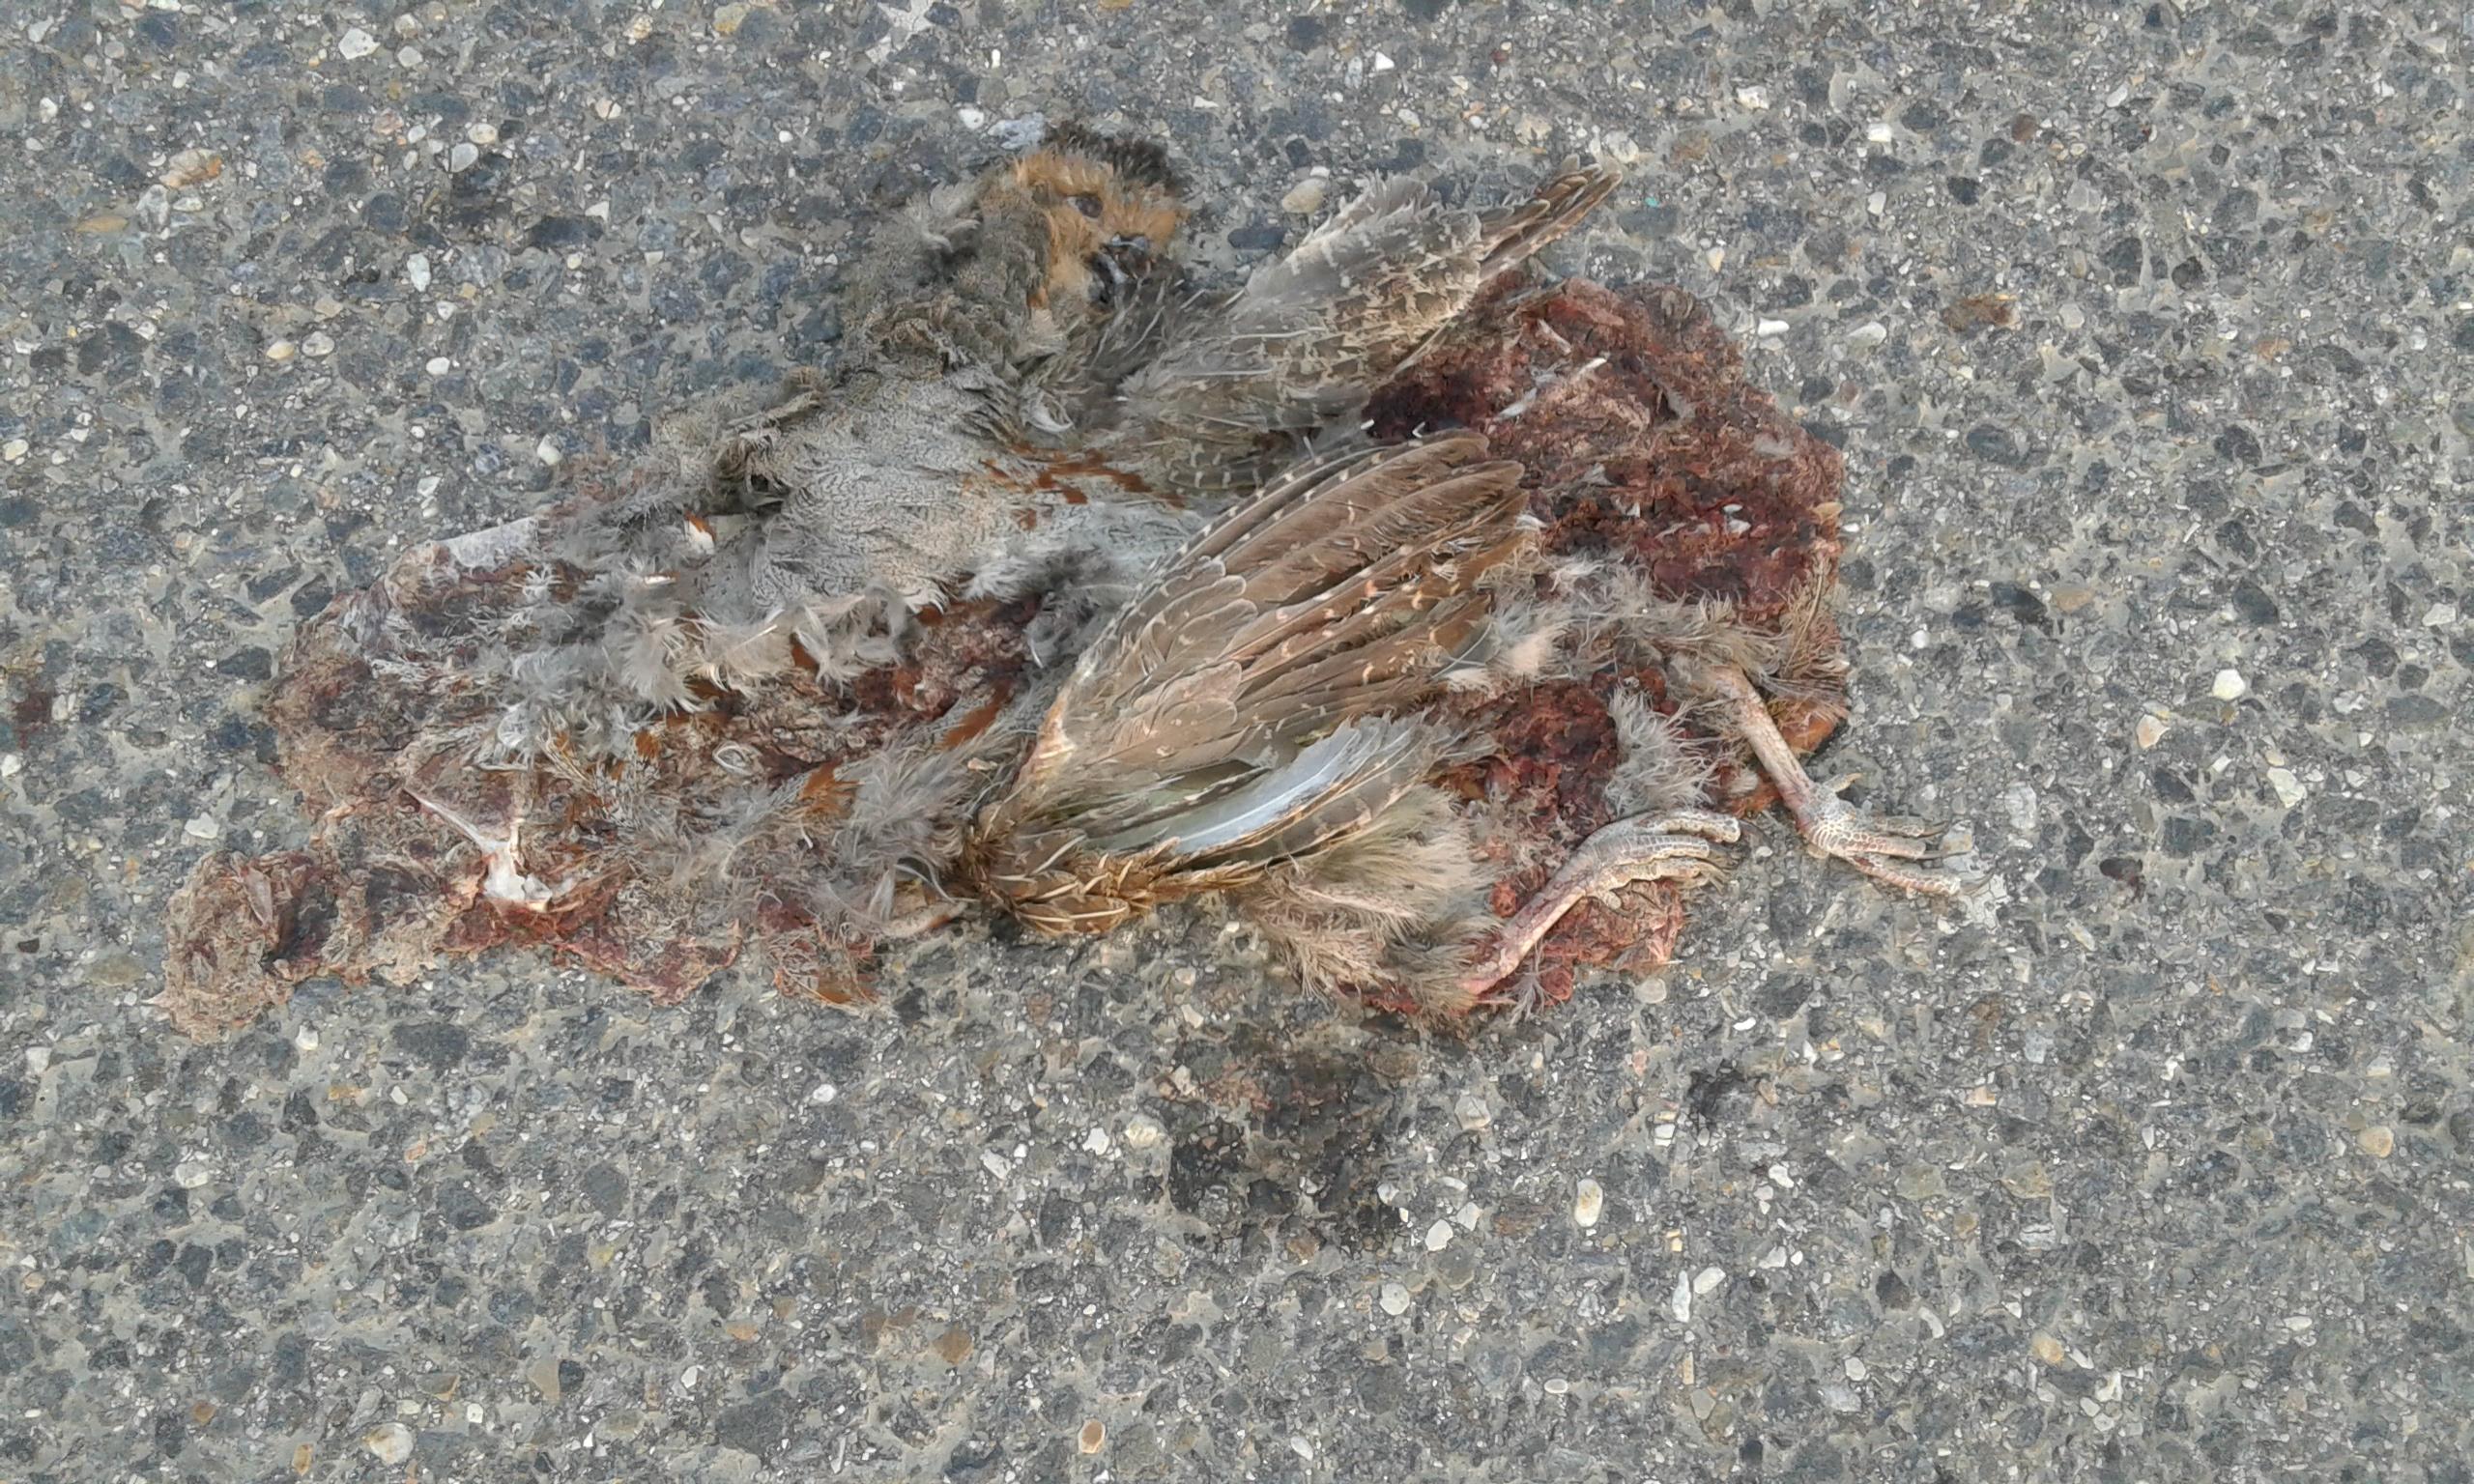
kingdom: Animalia
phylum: Chordata
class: Aves
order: Galliformes
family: Phasianidae
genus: Phasianus
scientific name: Phasianus colchicus
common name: Common pheasant
